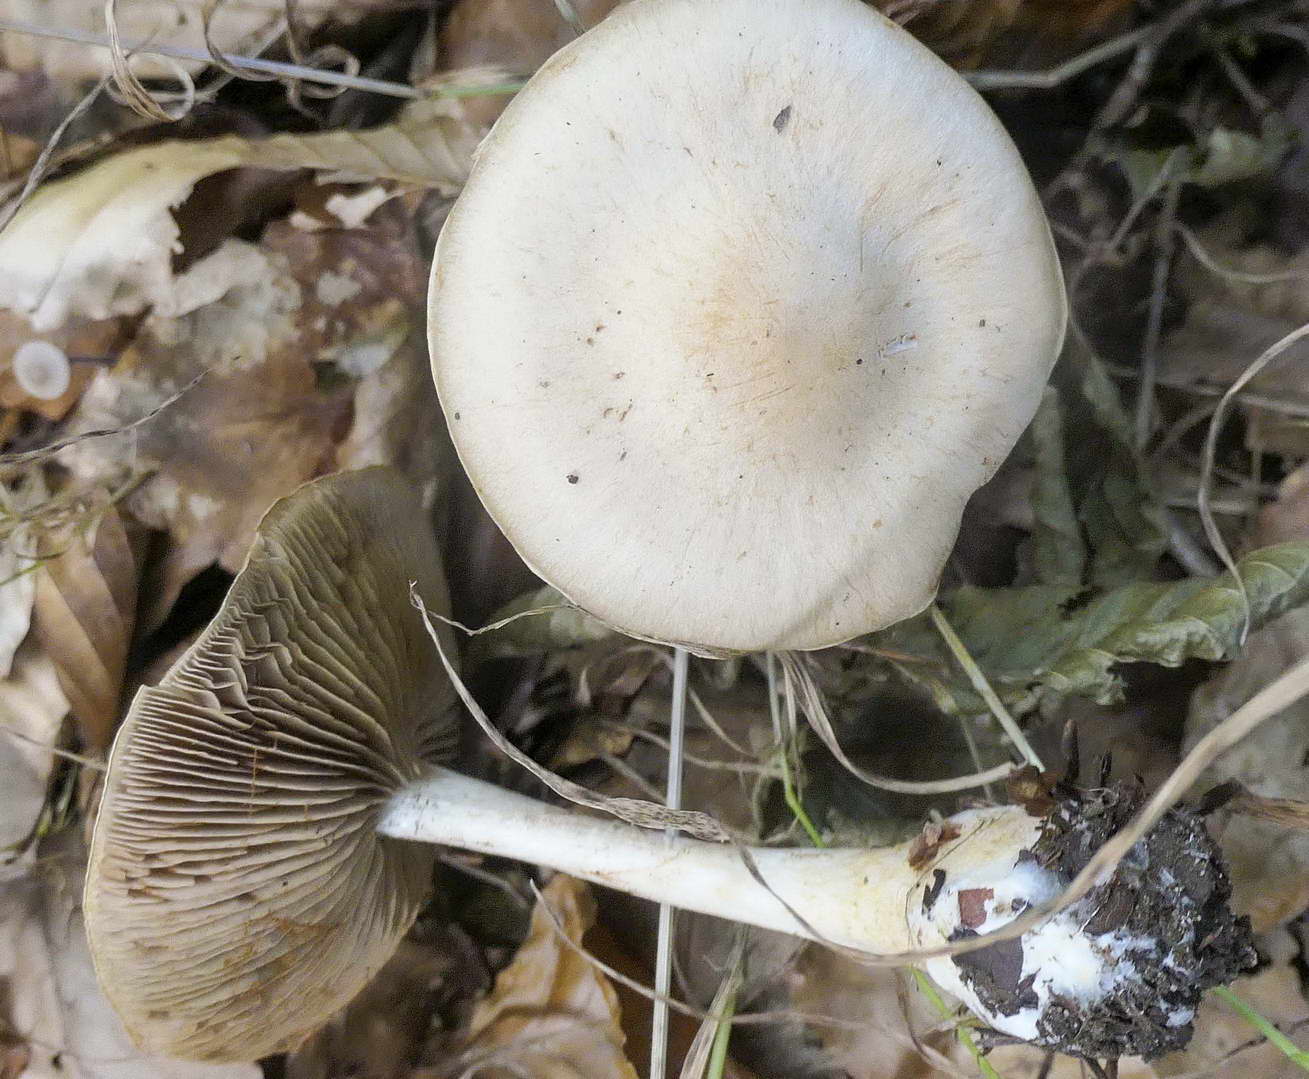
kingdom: Fungi
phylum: Basidiomycota
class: Agaricomycetes
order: Agaricales
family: Cortinariaceae
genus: Cortinarius
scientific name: Cortinarius
